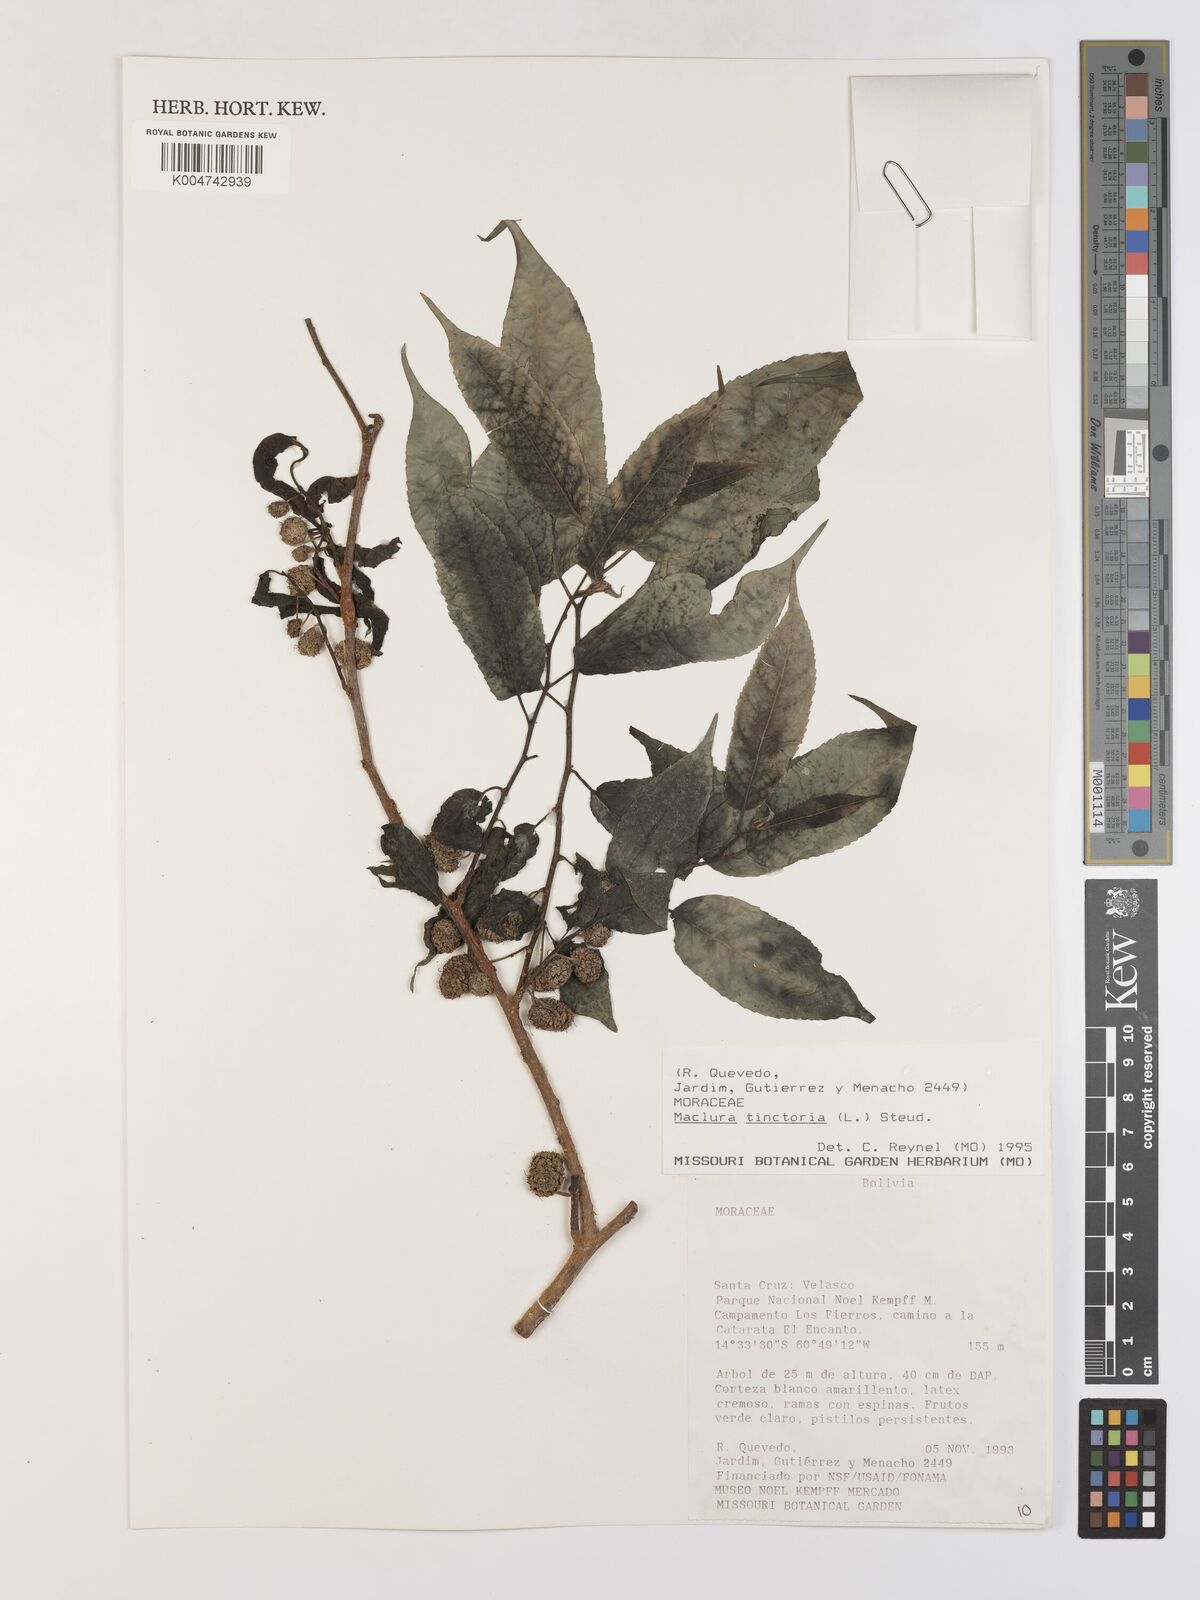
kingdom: Plantae
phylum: Tracheophyta
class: Magnoliopsida
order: Rosales
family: Moraceae
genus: Maclura
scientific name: Maclura tinctoria
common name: Old fustic
